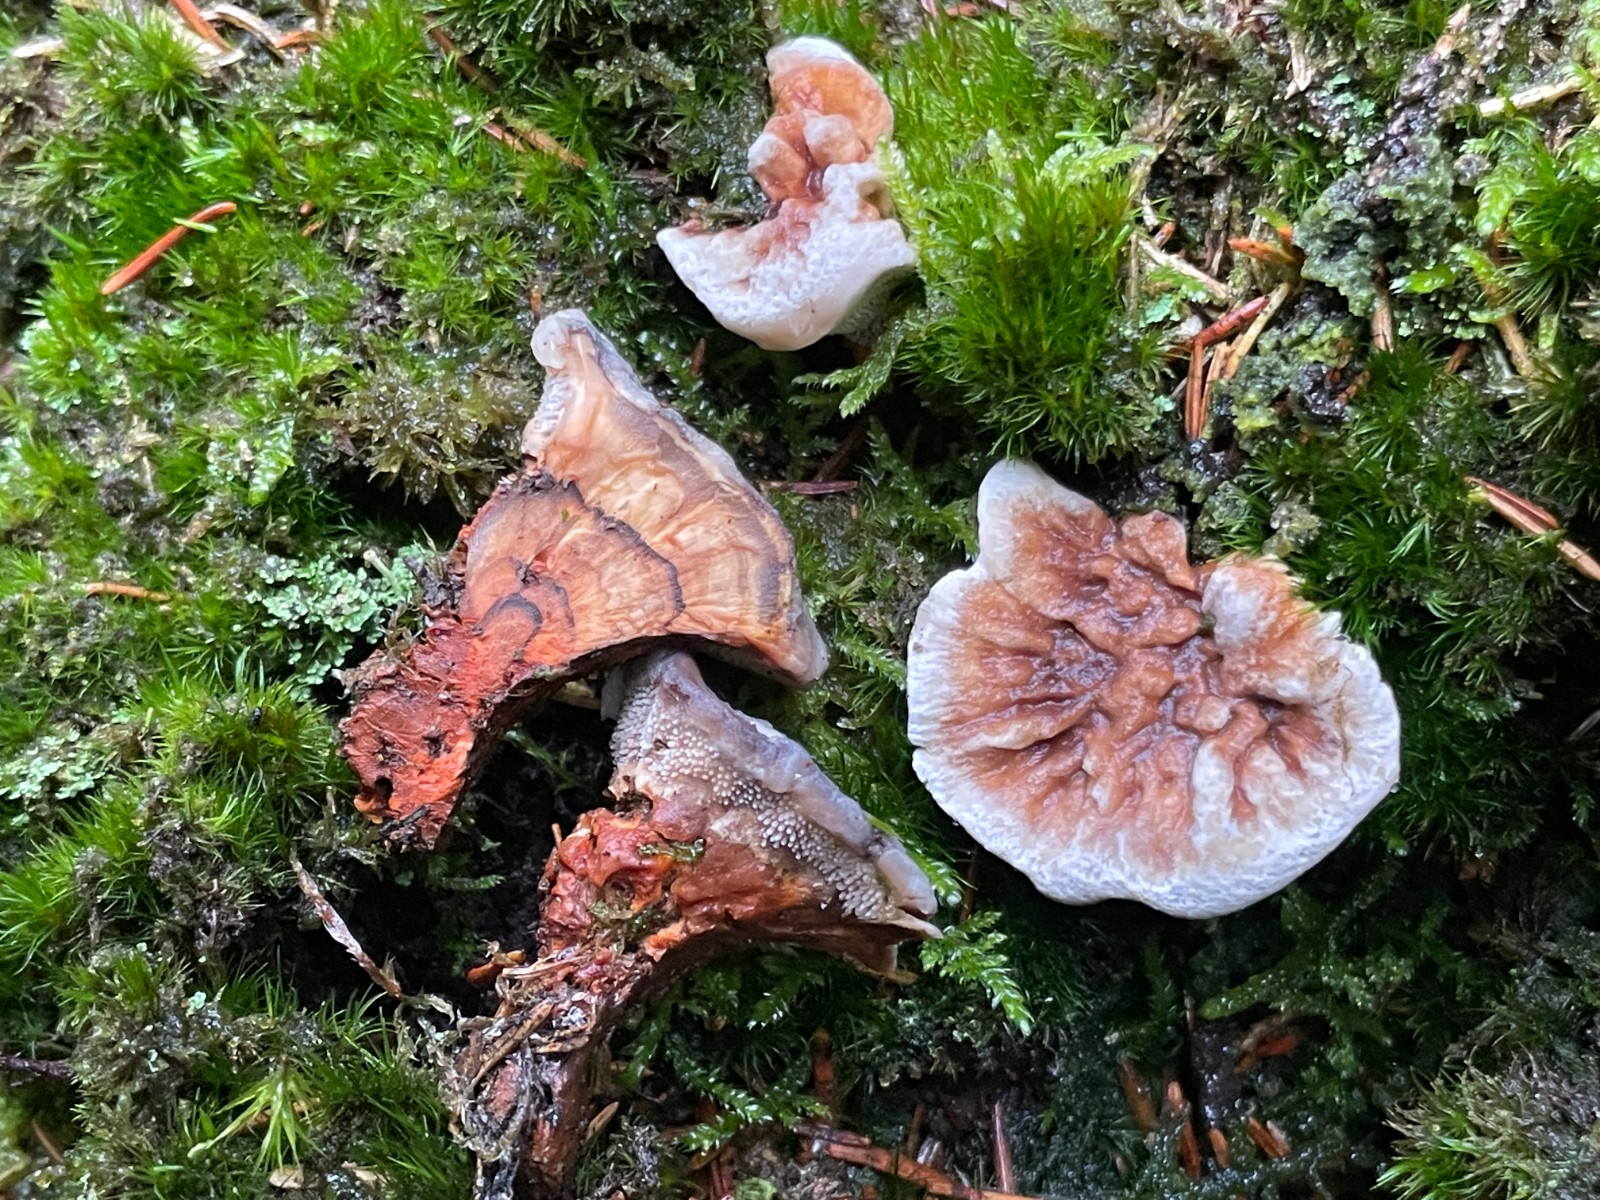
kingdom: Fungi
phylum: Basidiomycota
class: Agaricomycetes
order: Thelephorales
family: Bankeraceae
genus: Hydnellum
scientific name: Hydnellum aurantiacum
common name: orange korkpigsvamp
